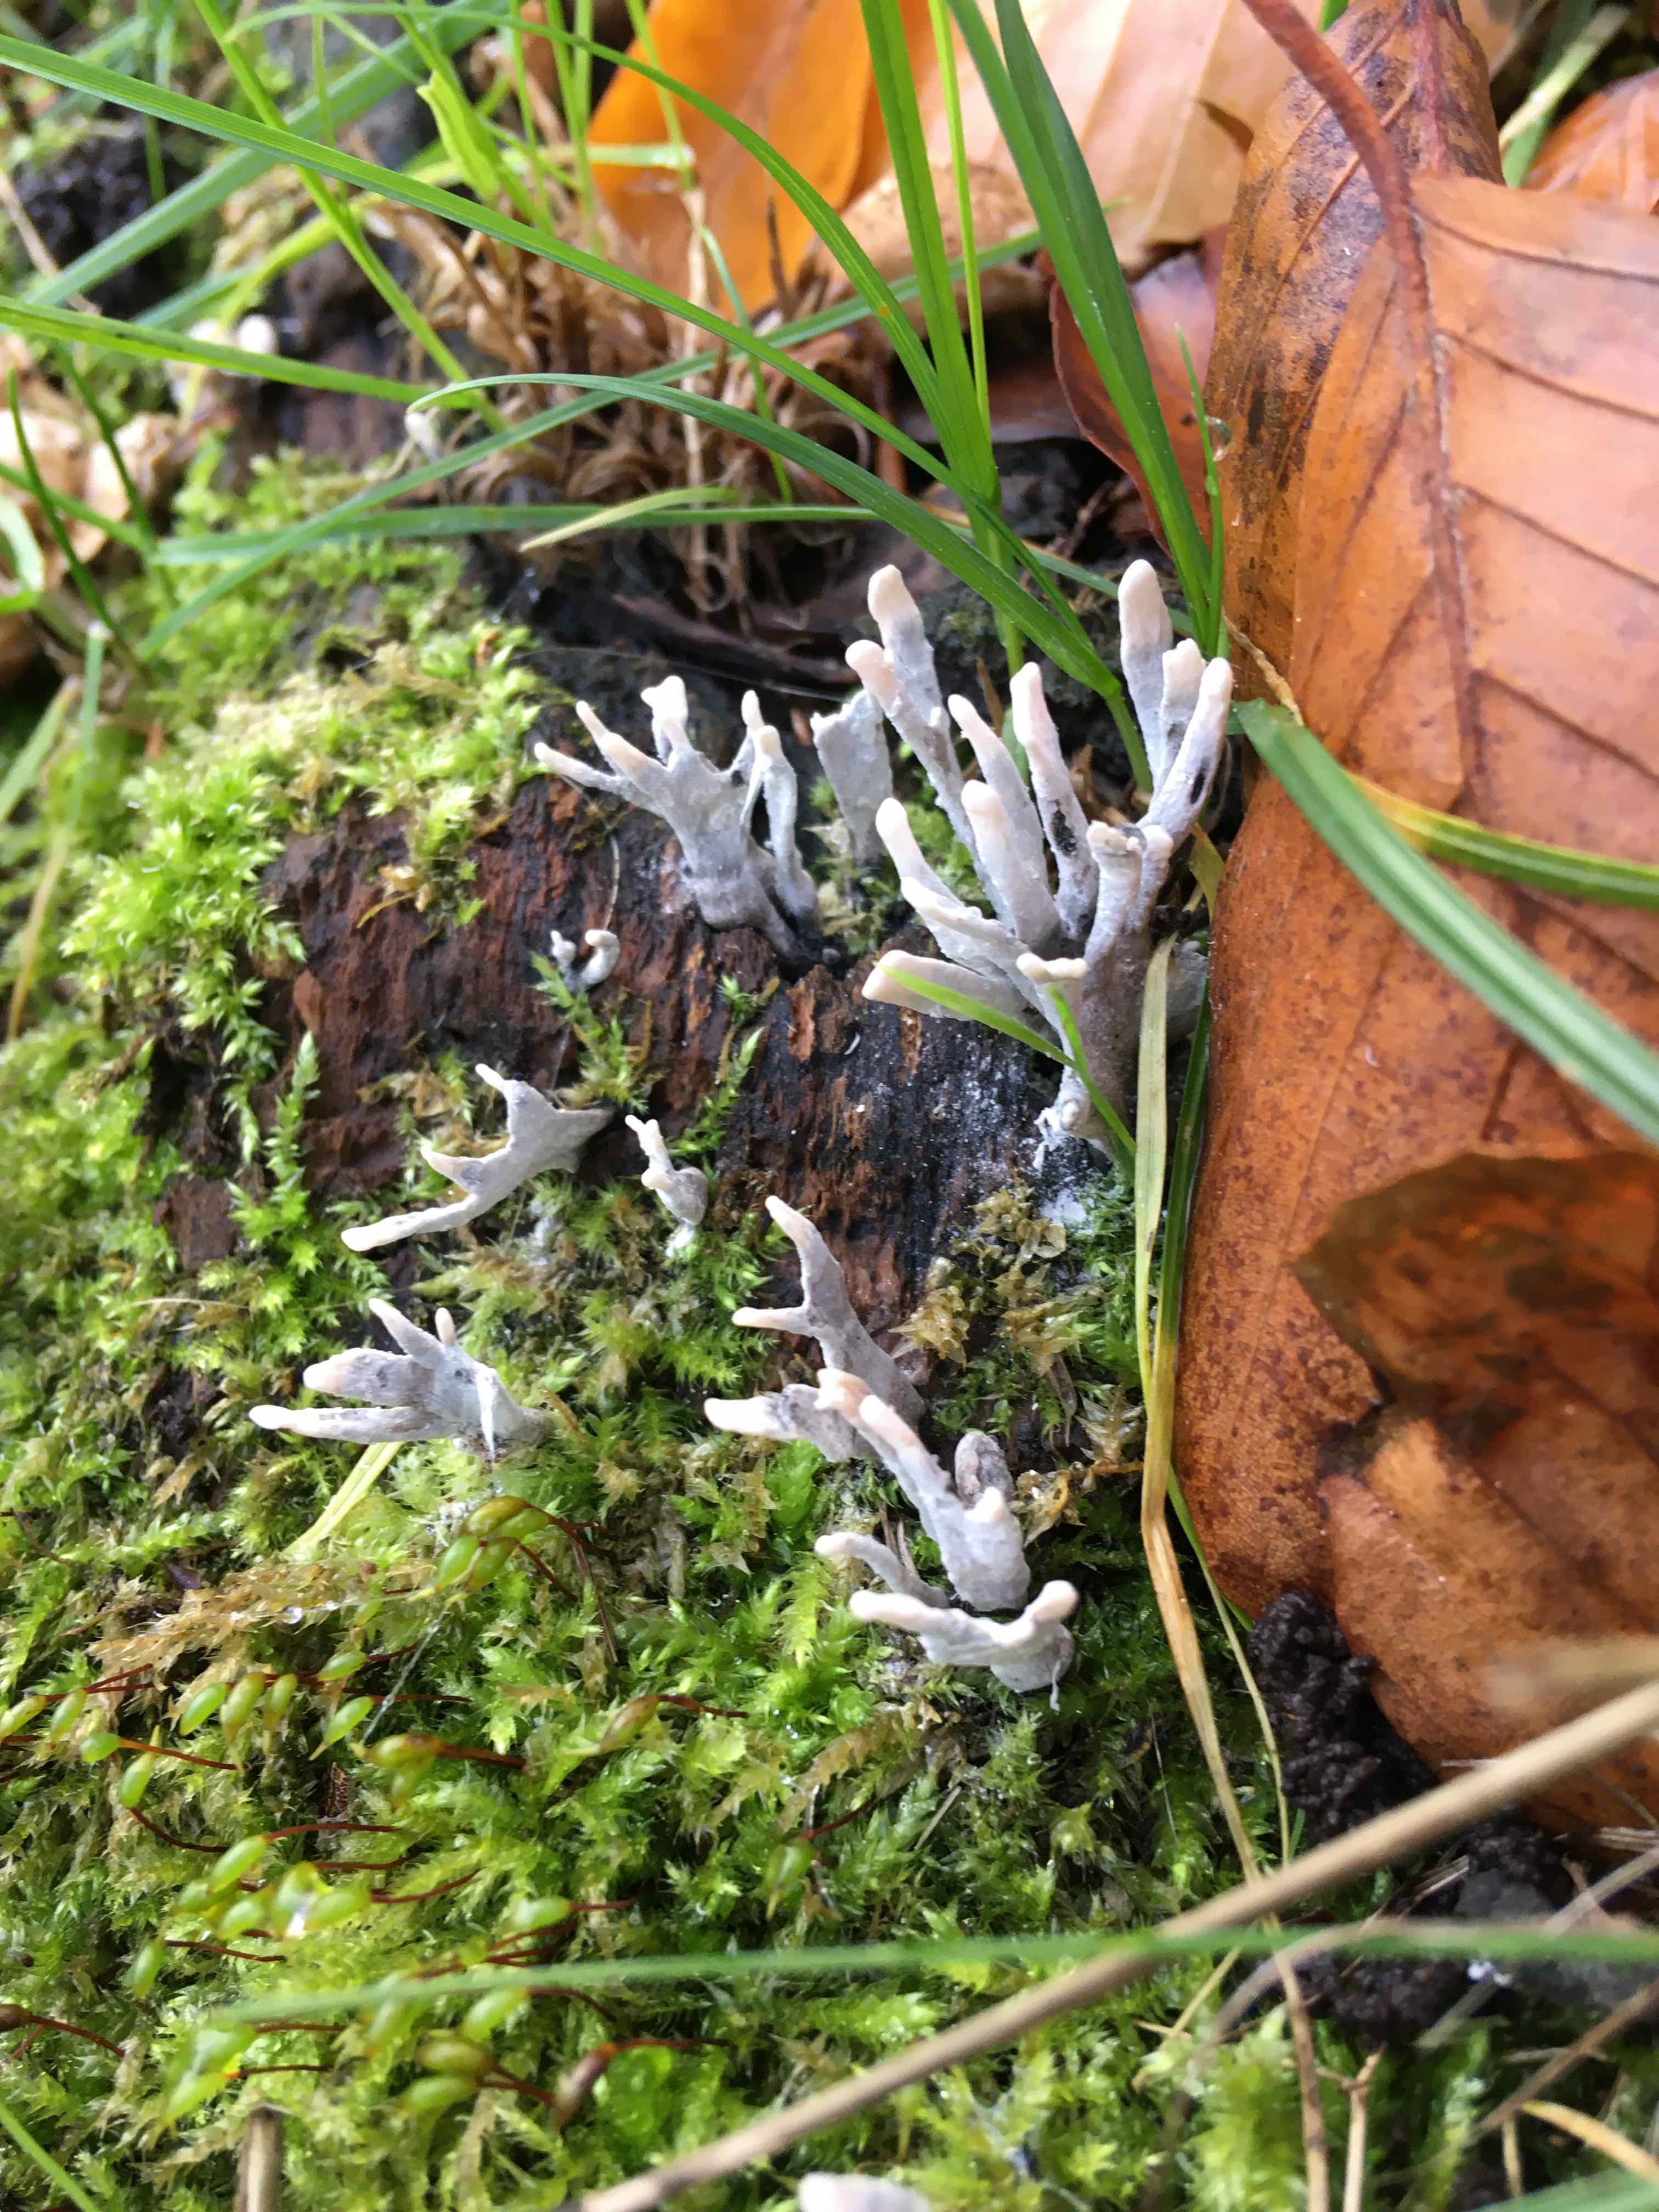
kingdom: Fungi
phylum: Ascomycota
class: Sordariomycetes
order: Xylariales
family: Xylariaceae
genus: Xylaria
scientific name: Xylaria hypoxylon
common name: grenet stødsvamp
